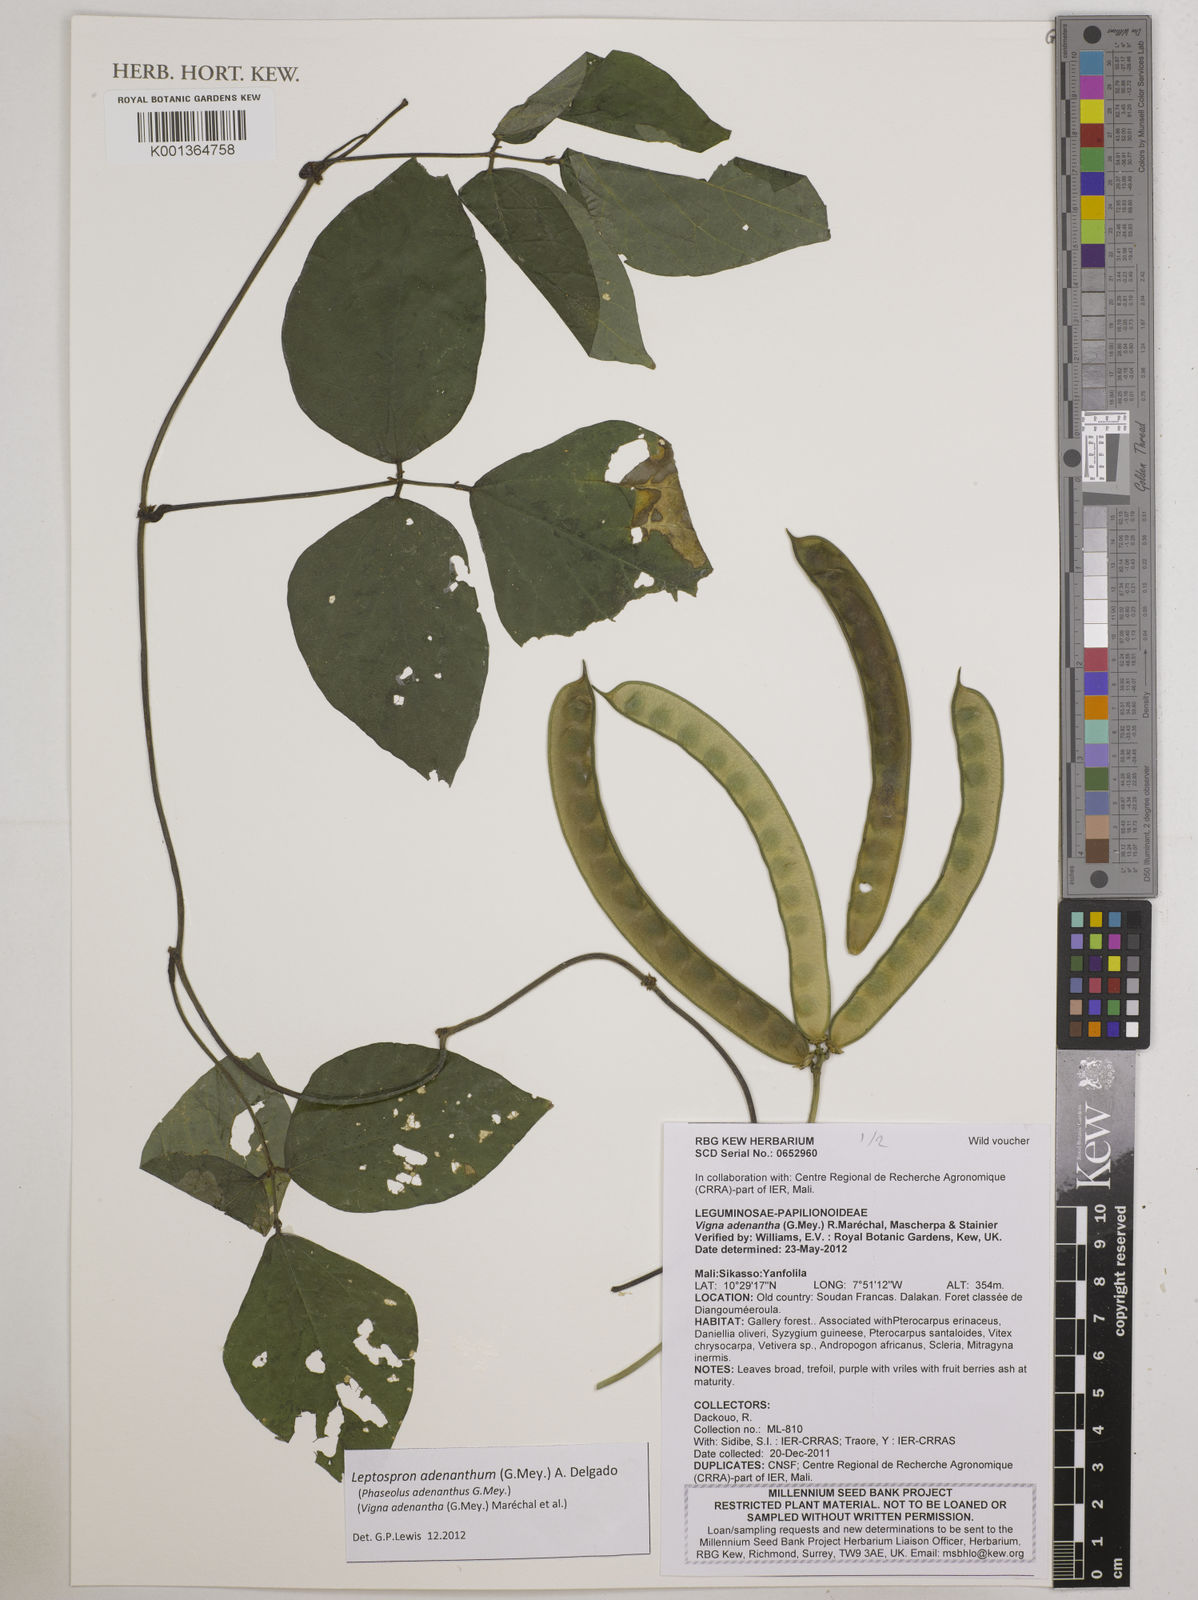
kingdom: Plantae
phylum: Tracheophyta
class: Magnoliopsida
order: Fabales
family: Fabaceae
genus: Leptospron
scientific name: Leptospron adenanthum
